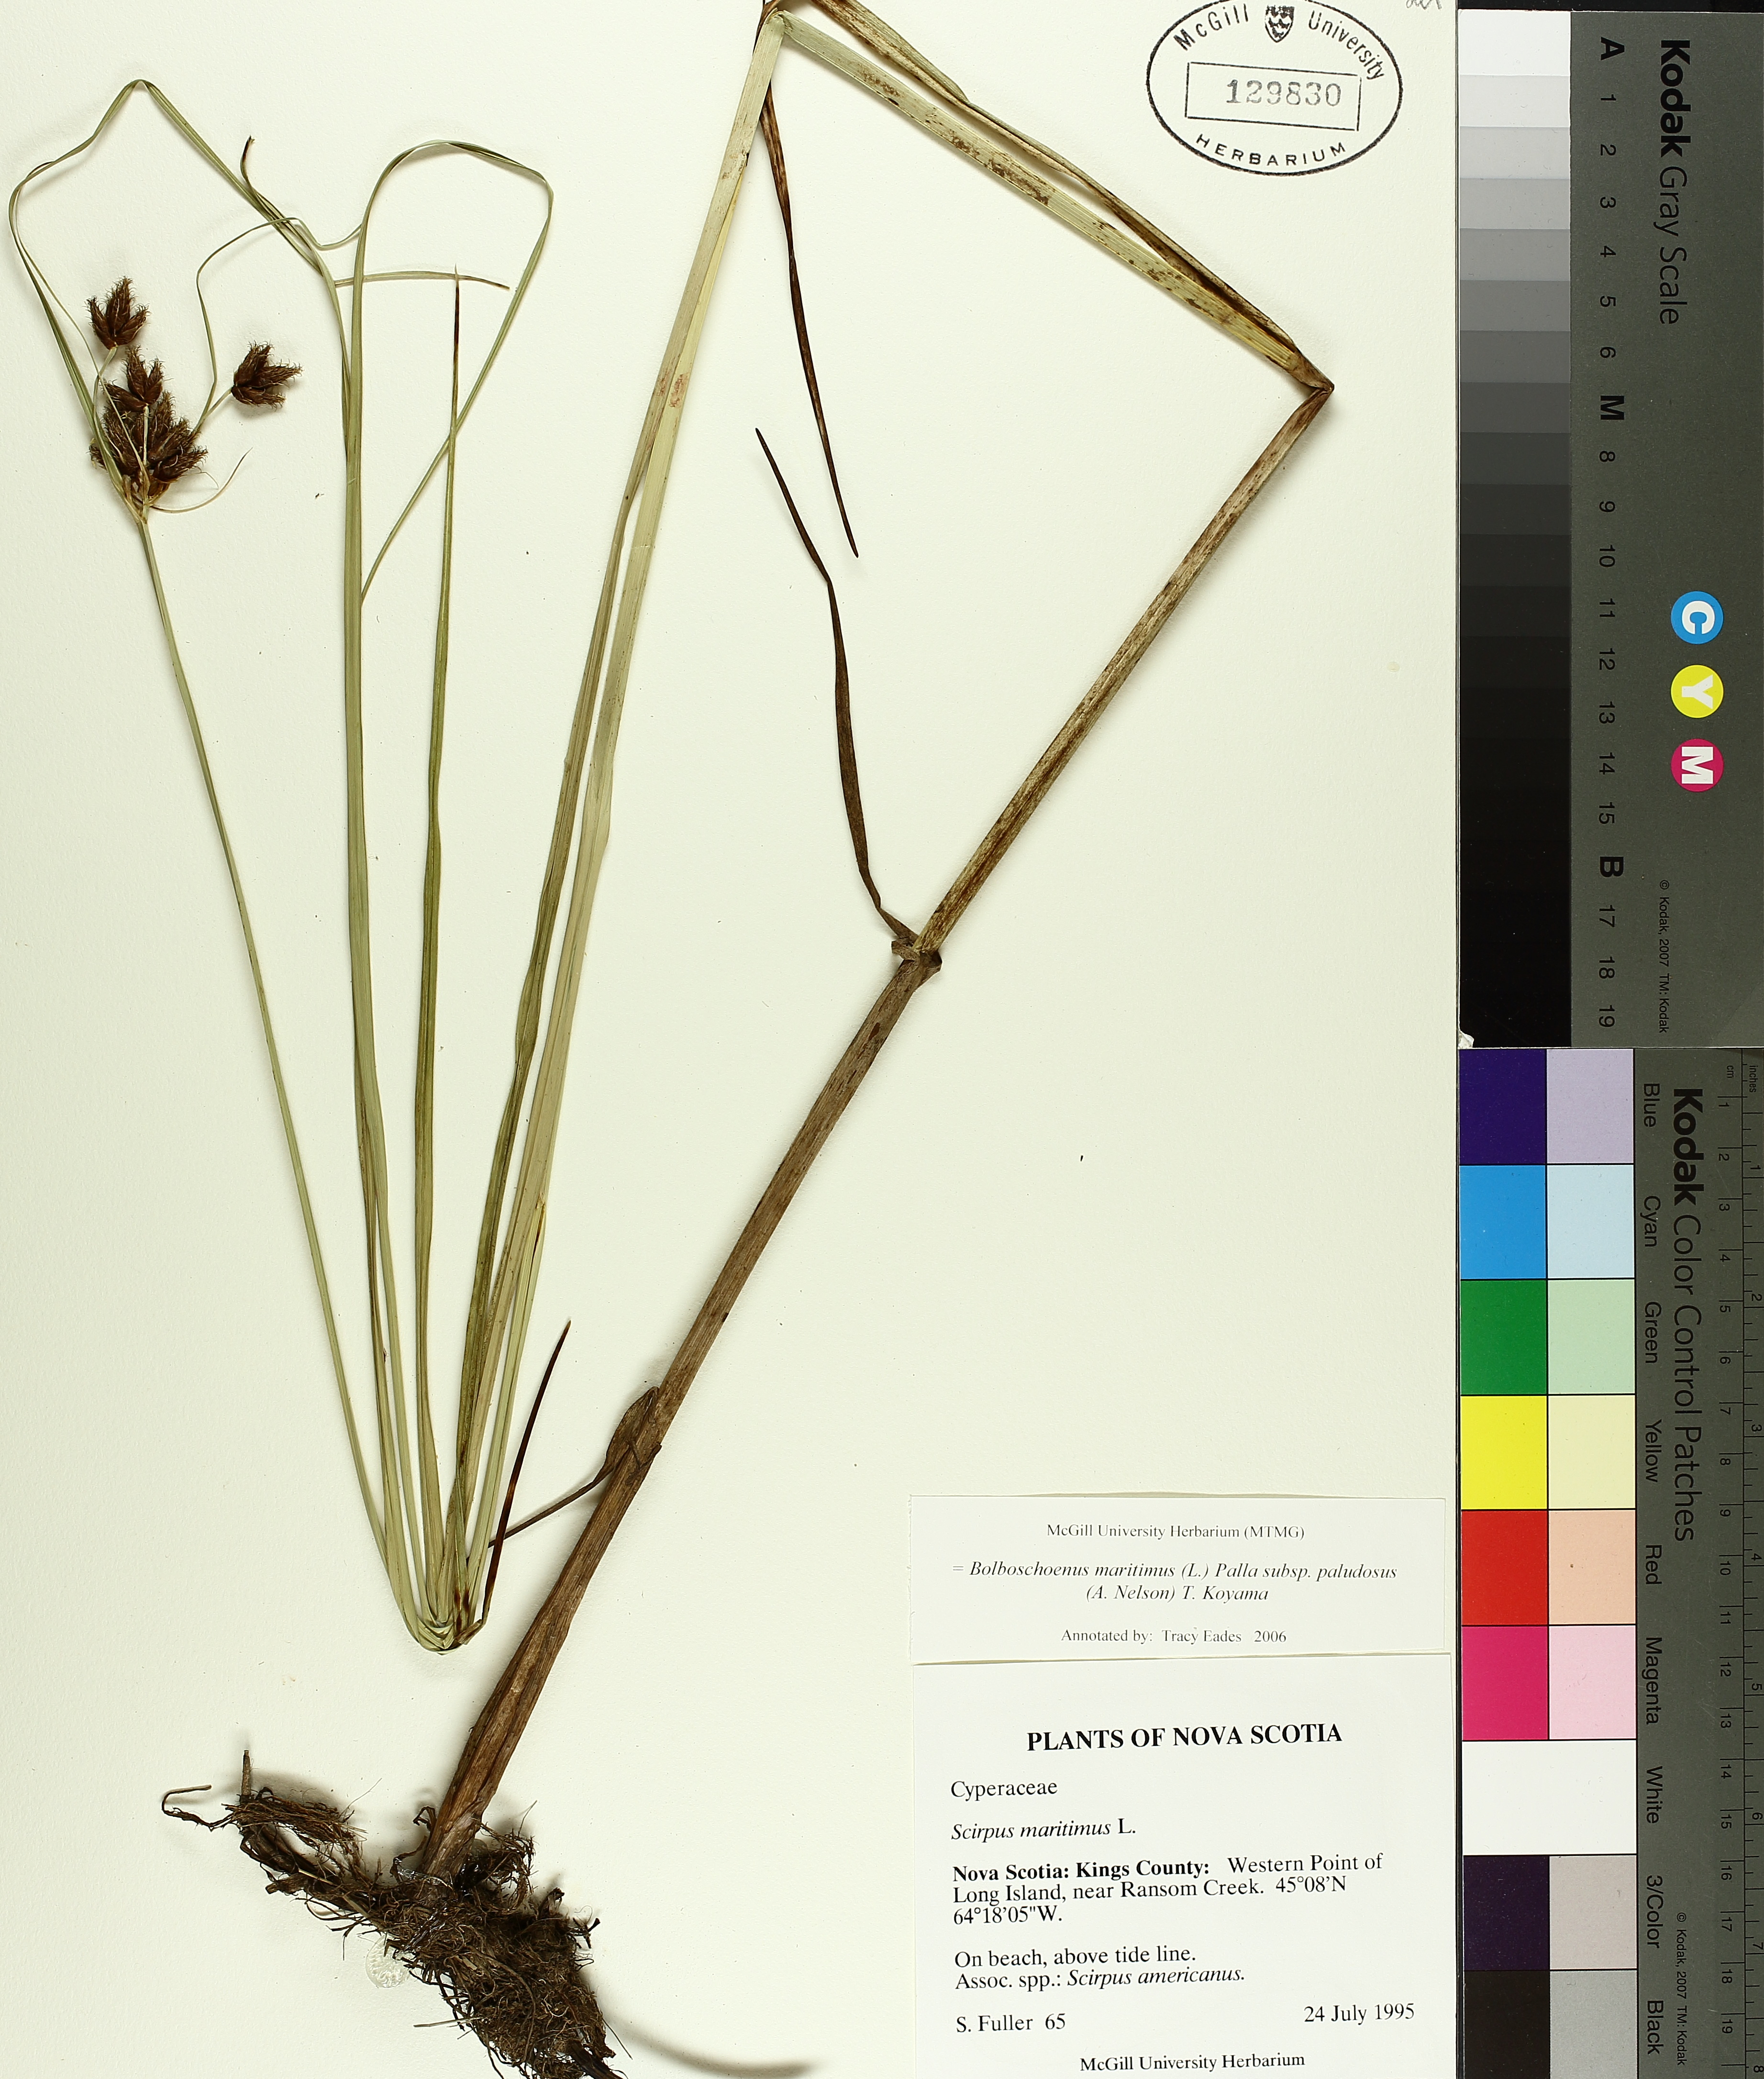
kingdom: Plantae
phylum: Tracheophyta
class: Liliopsida
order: Poales
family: Cyperaceae
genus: Bolboschoenus
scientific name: Bolboschoenus maritimus
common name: Sea club-rush
